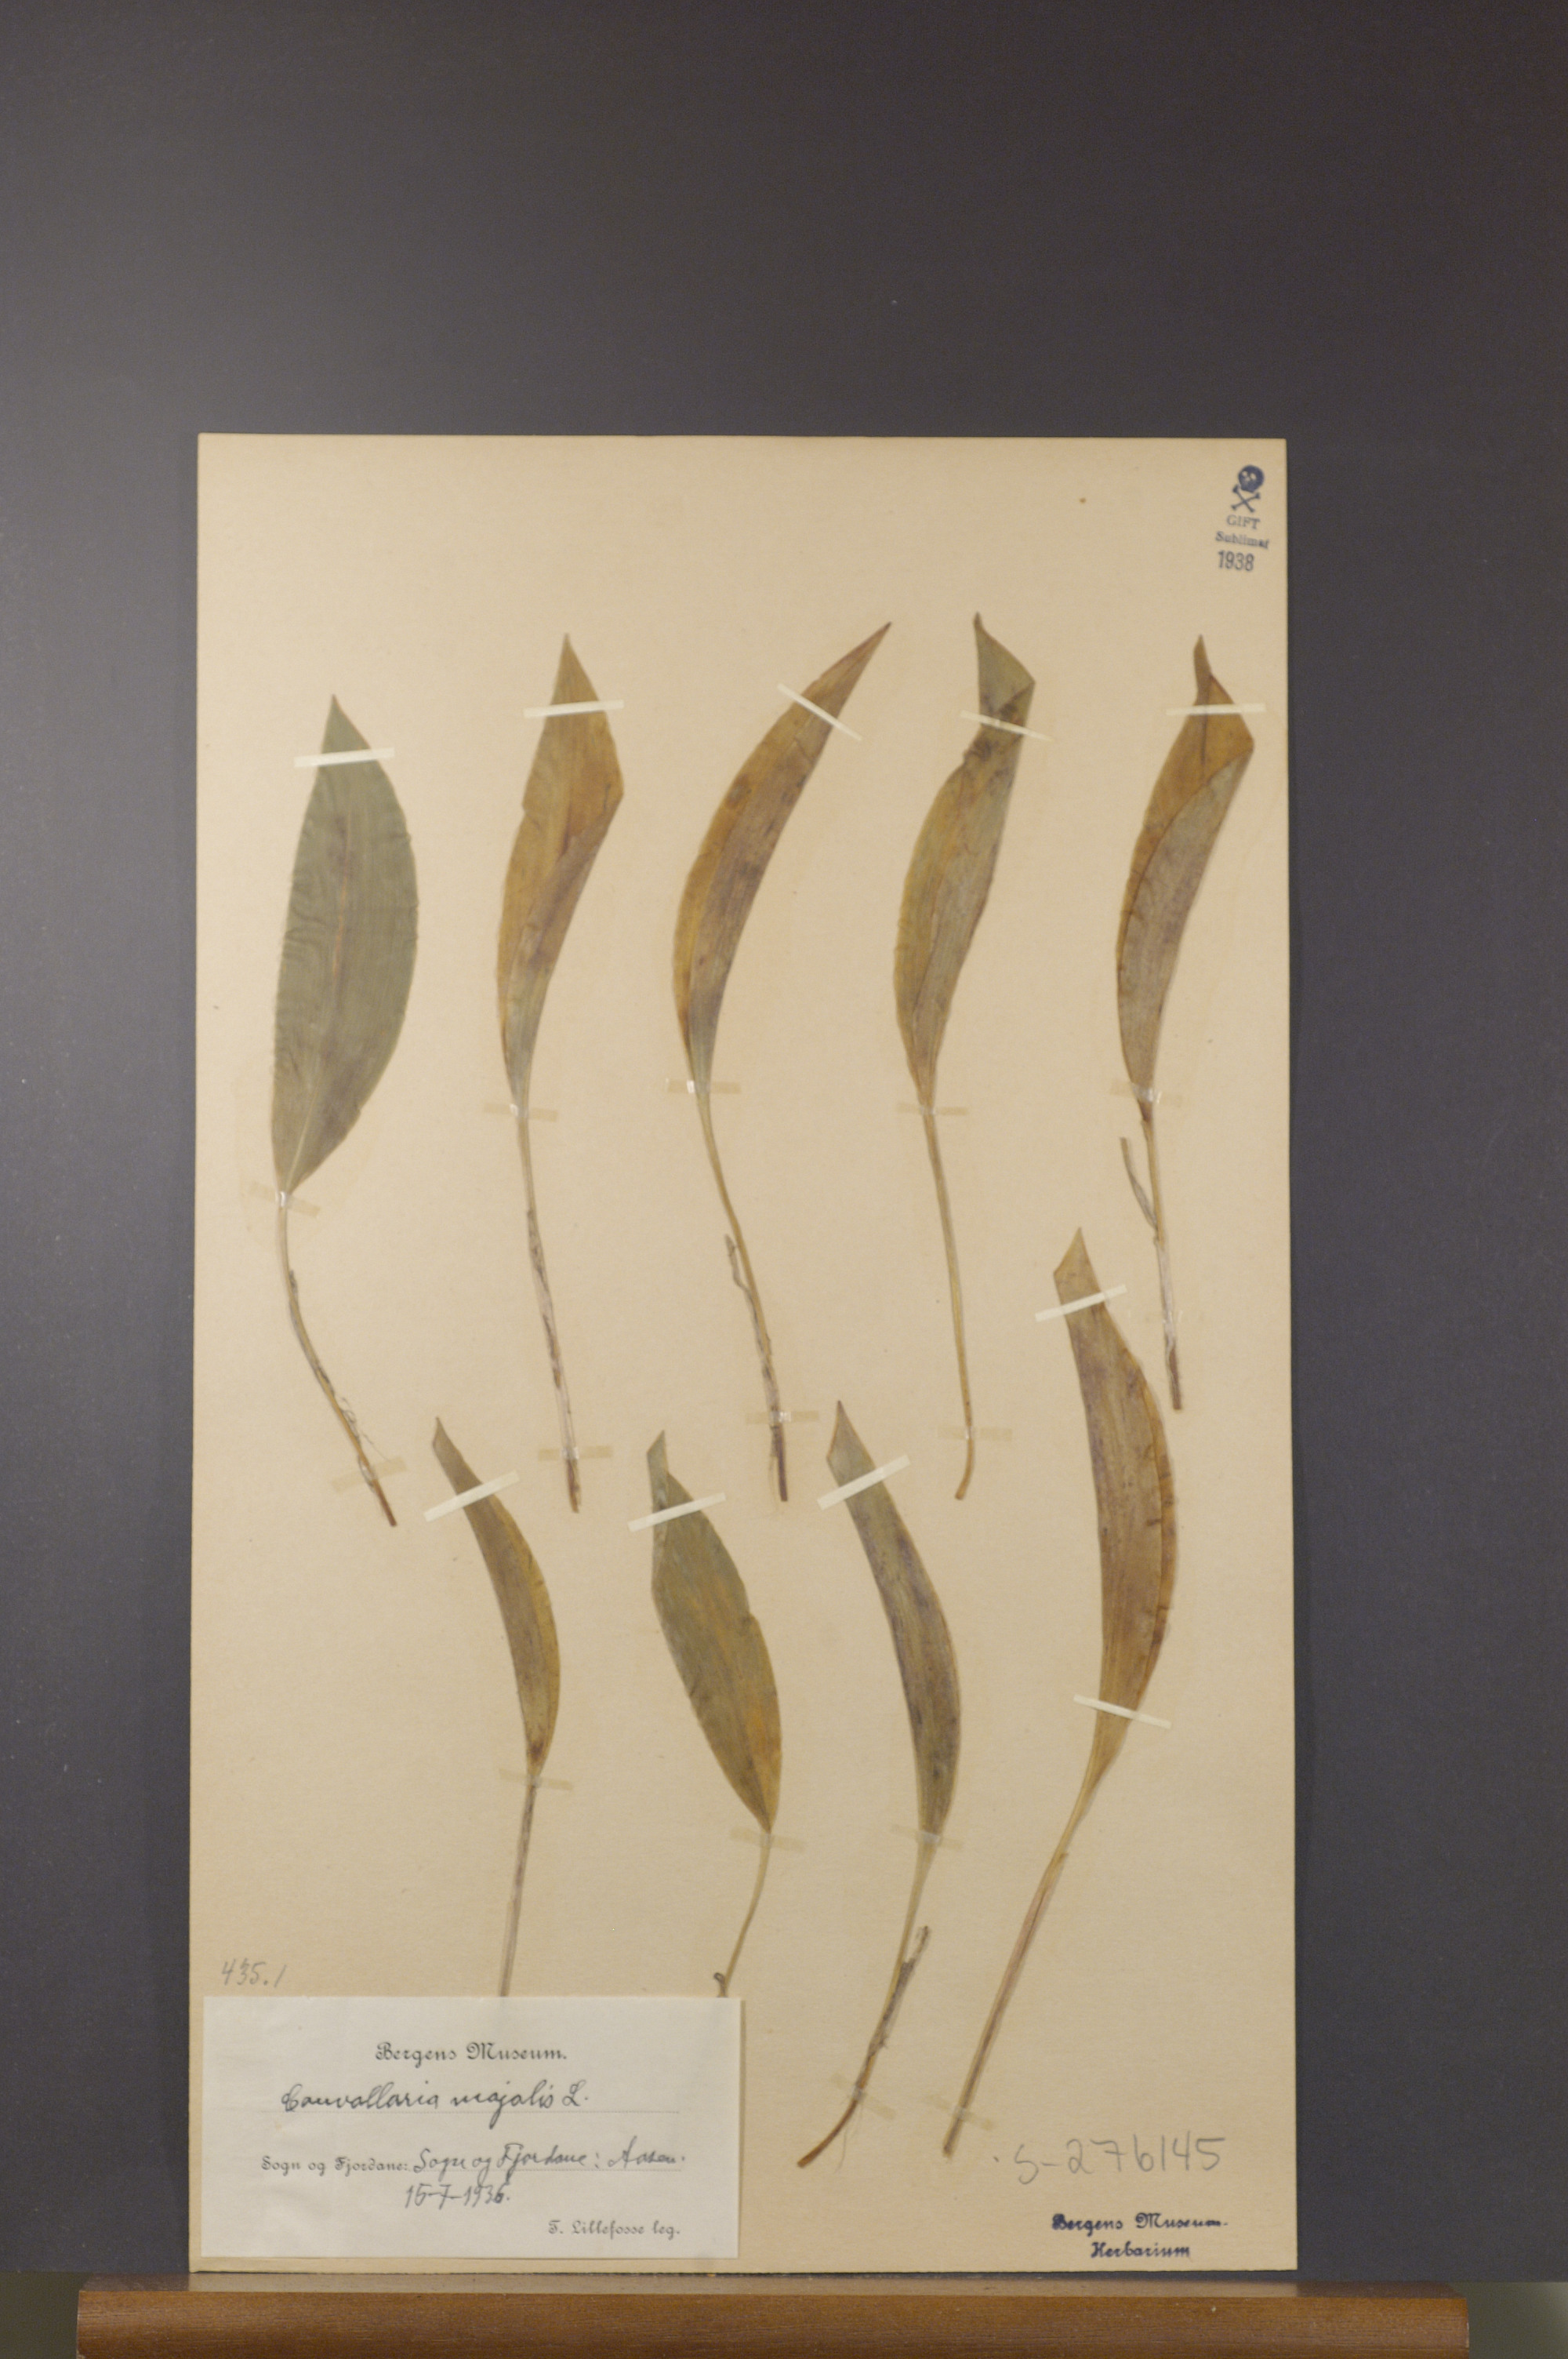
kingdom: Plantae
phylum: Tracheophyta
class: Liliopsida
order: Asparagales
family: Asparagaceae
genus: Convallaria
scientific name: Convallaria majalis
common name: Lily-of-the-valley
